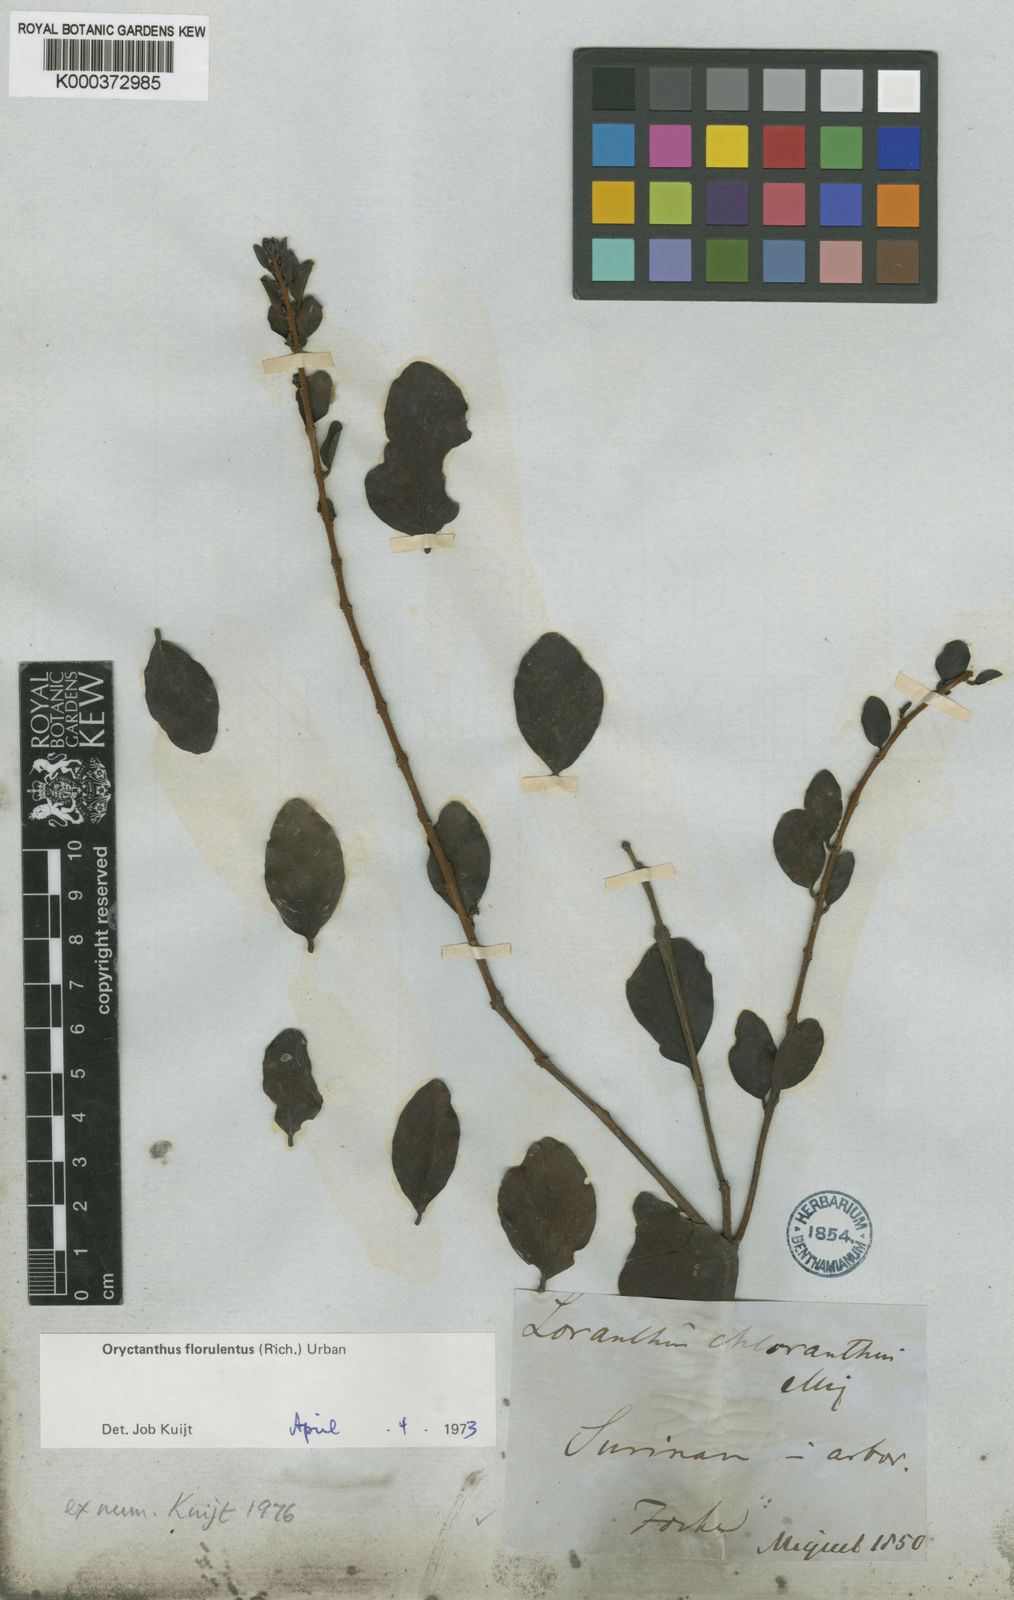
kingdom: Plantae
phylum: Tracheophyta
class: Magnoliopsida
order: Santalales
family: Loranthaceae
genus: Oryctanthus
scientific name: Oryctanthus
